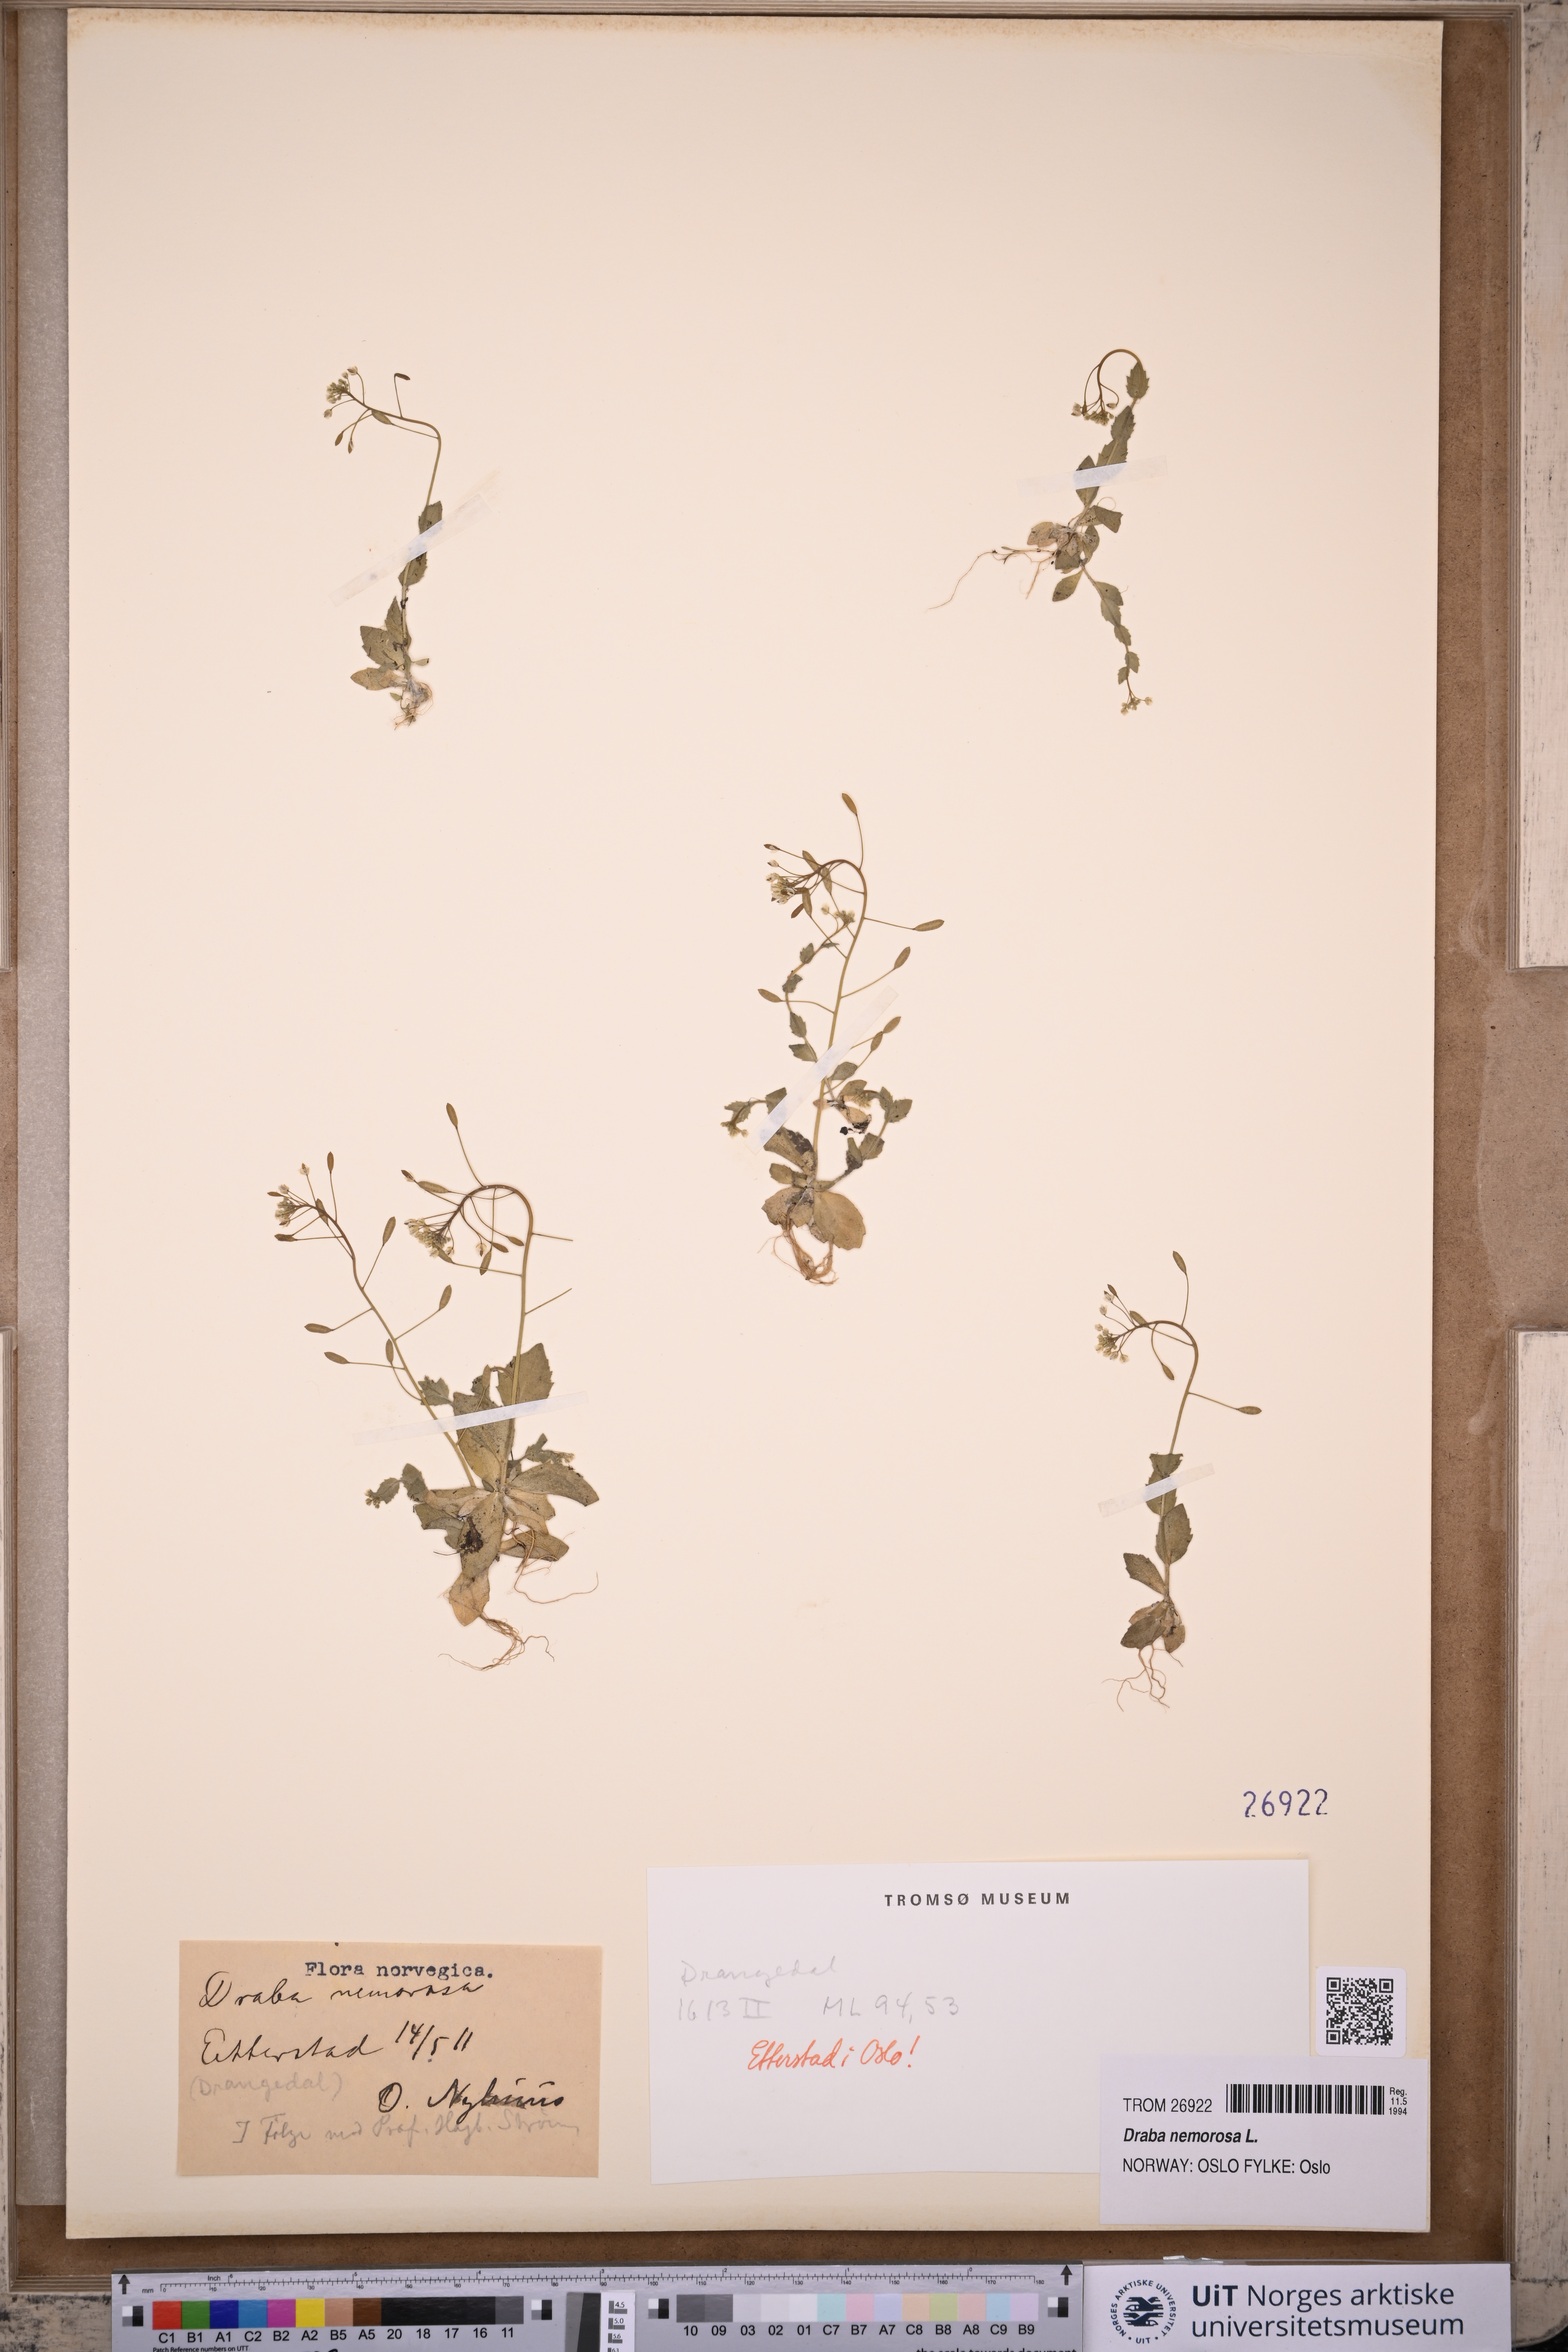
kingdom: Plantae
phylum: Tracheophyta
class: Magnoliopsida
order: Brassicales
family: Brassicaceae
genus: Draba
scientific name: Draba nemorosa
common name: Wood whitlow-grass
